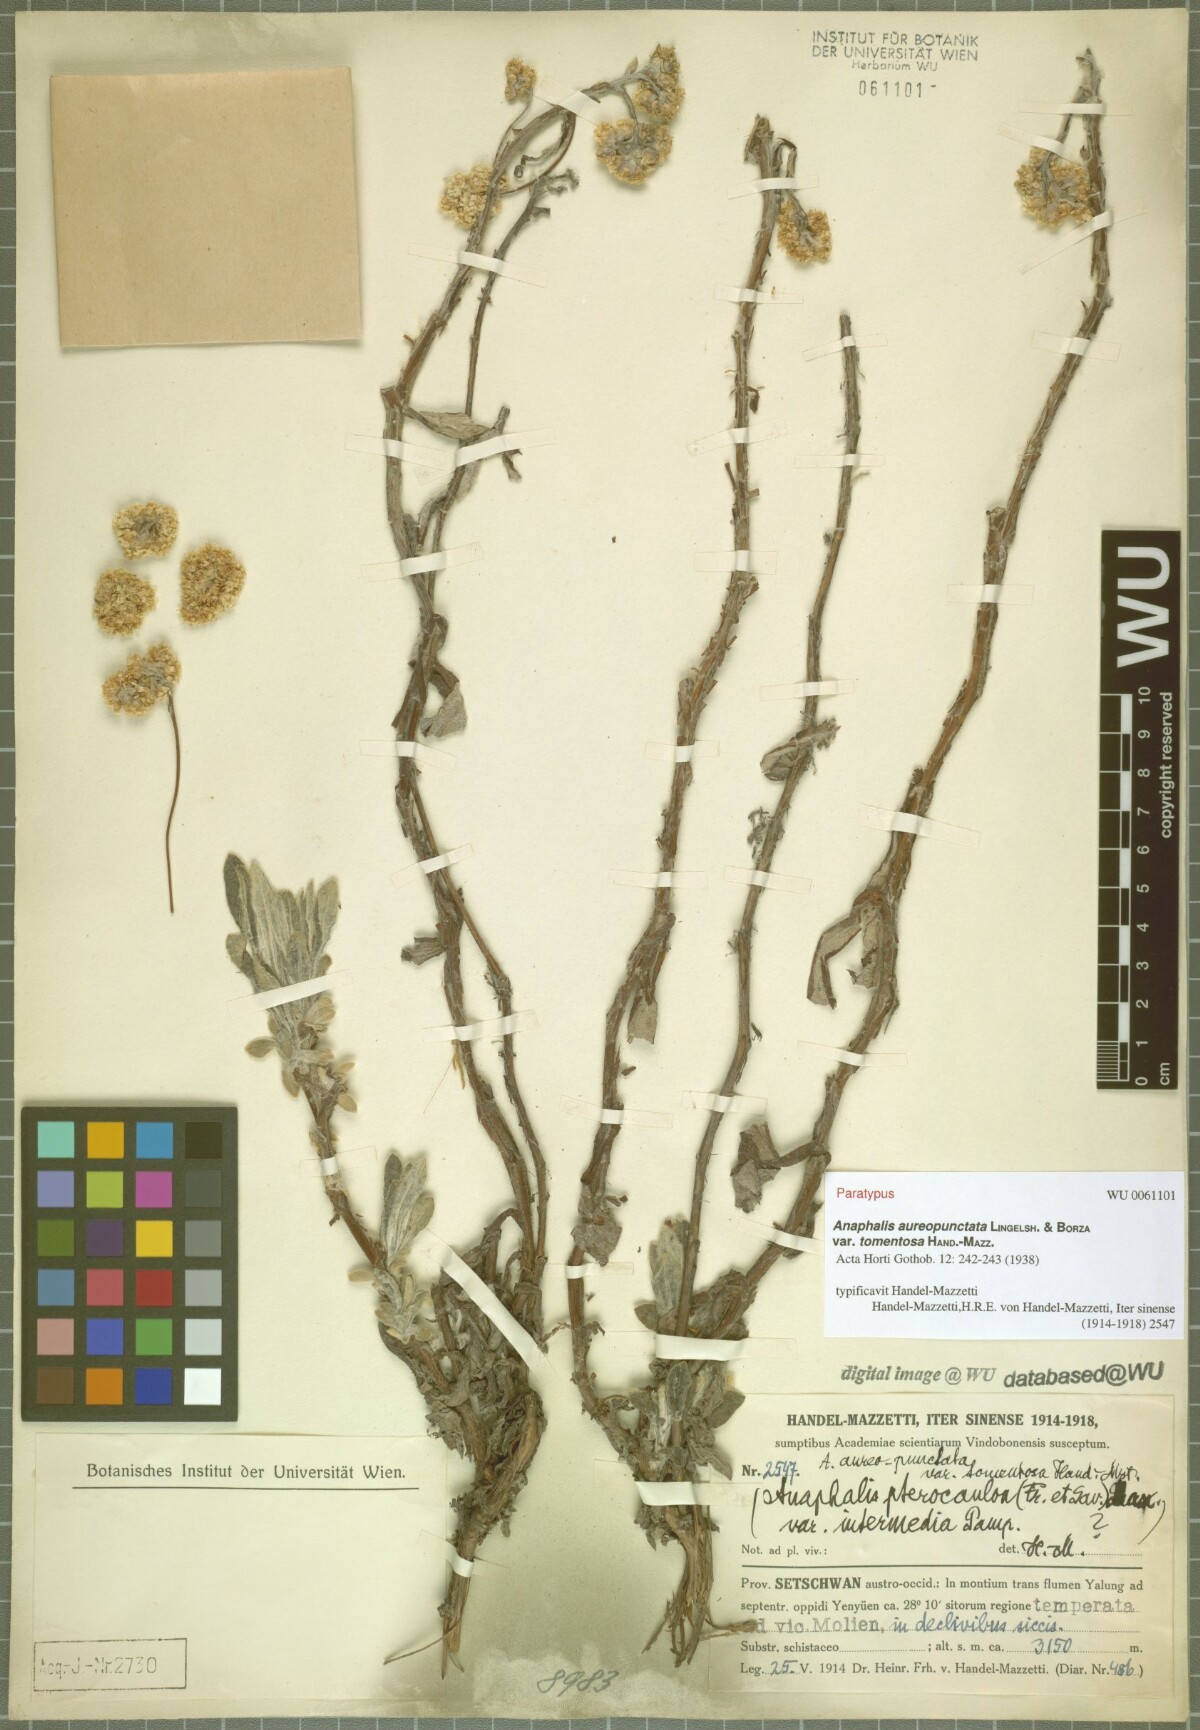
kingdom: Plantae
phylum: Tracheophyta
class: Magnoliopsida
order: Asterales
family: Asteraceae
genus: Anaphalis
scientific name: Anaphalis aureopunctata
